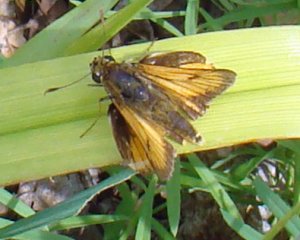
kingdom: Animalia
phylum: Arthropoda
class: Insecta
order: Lepidoptera
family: Hesperiidae
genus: Atrytone
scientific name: Atrytone delaware
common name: Delaware Skipper
